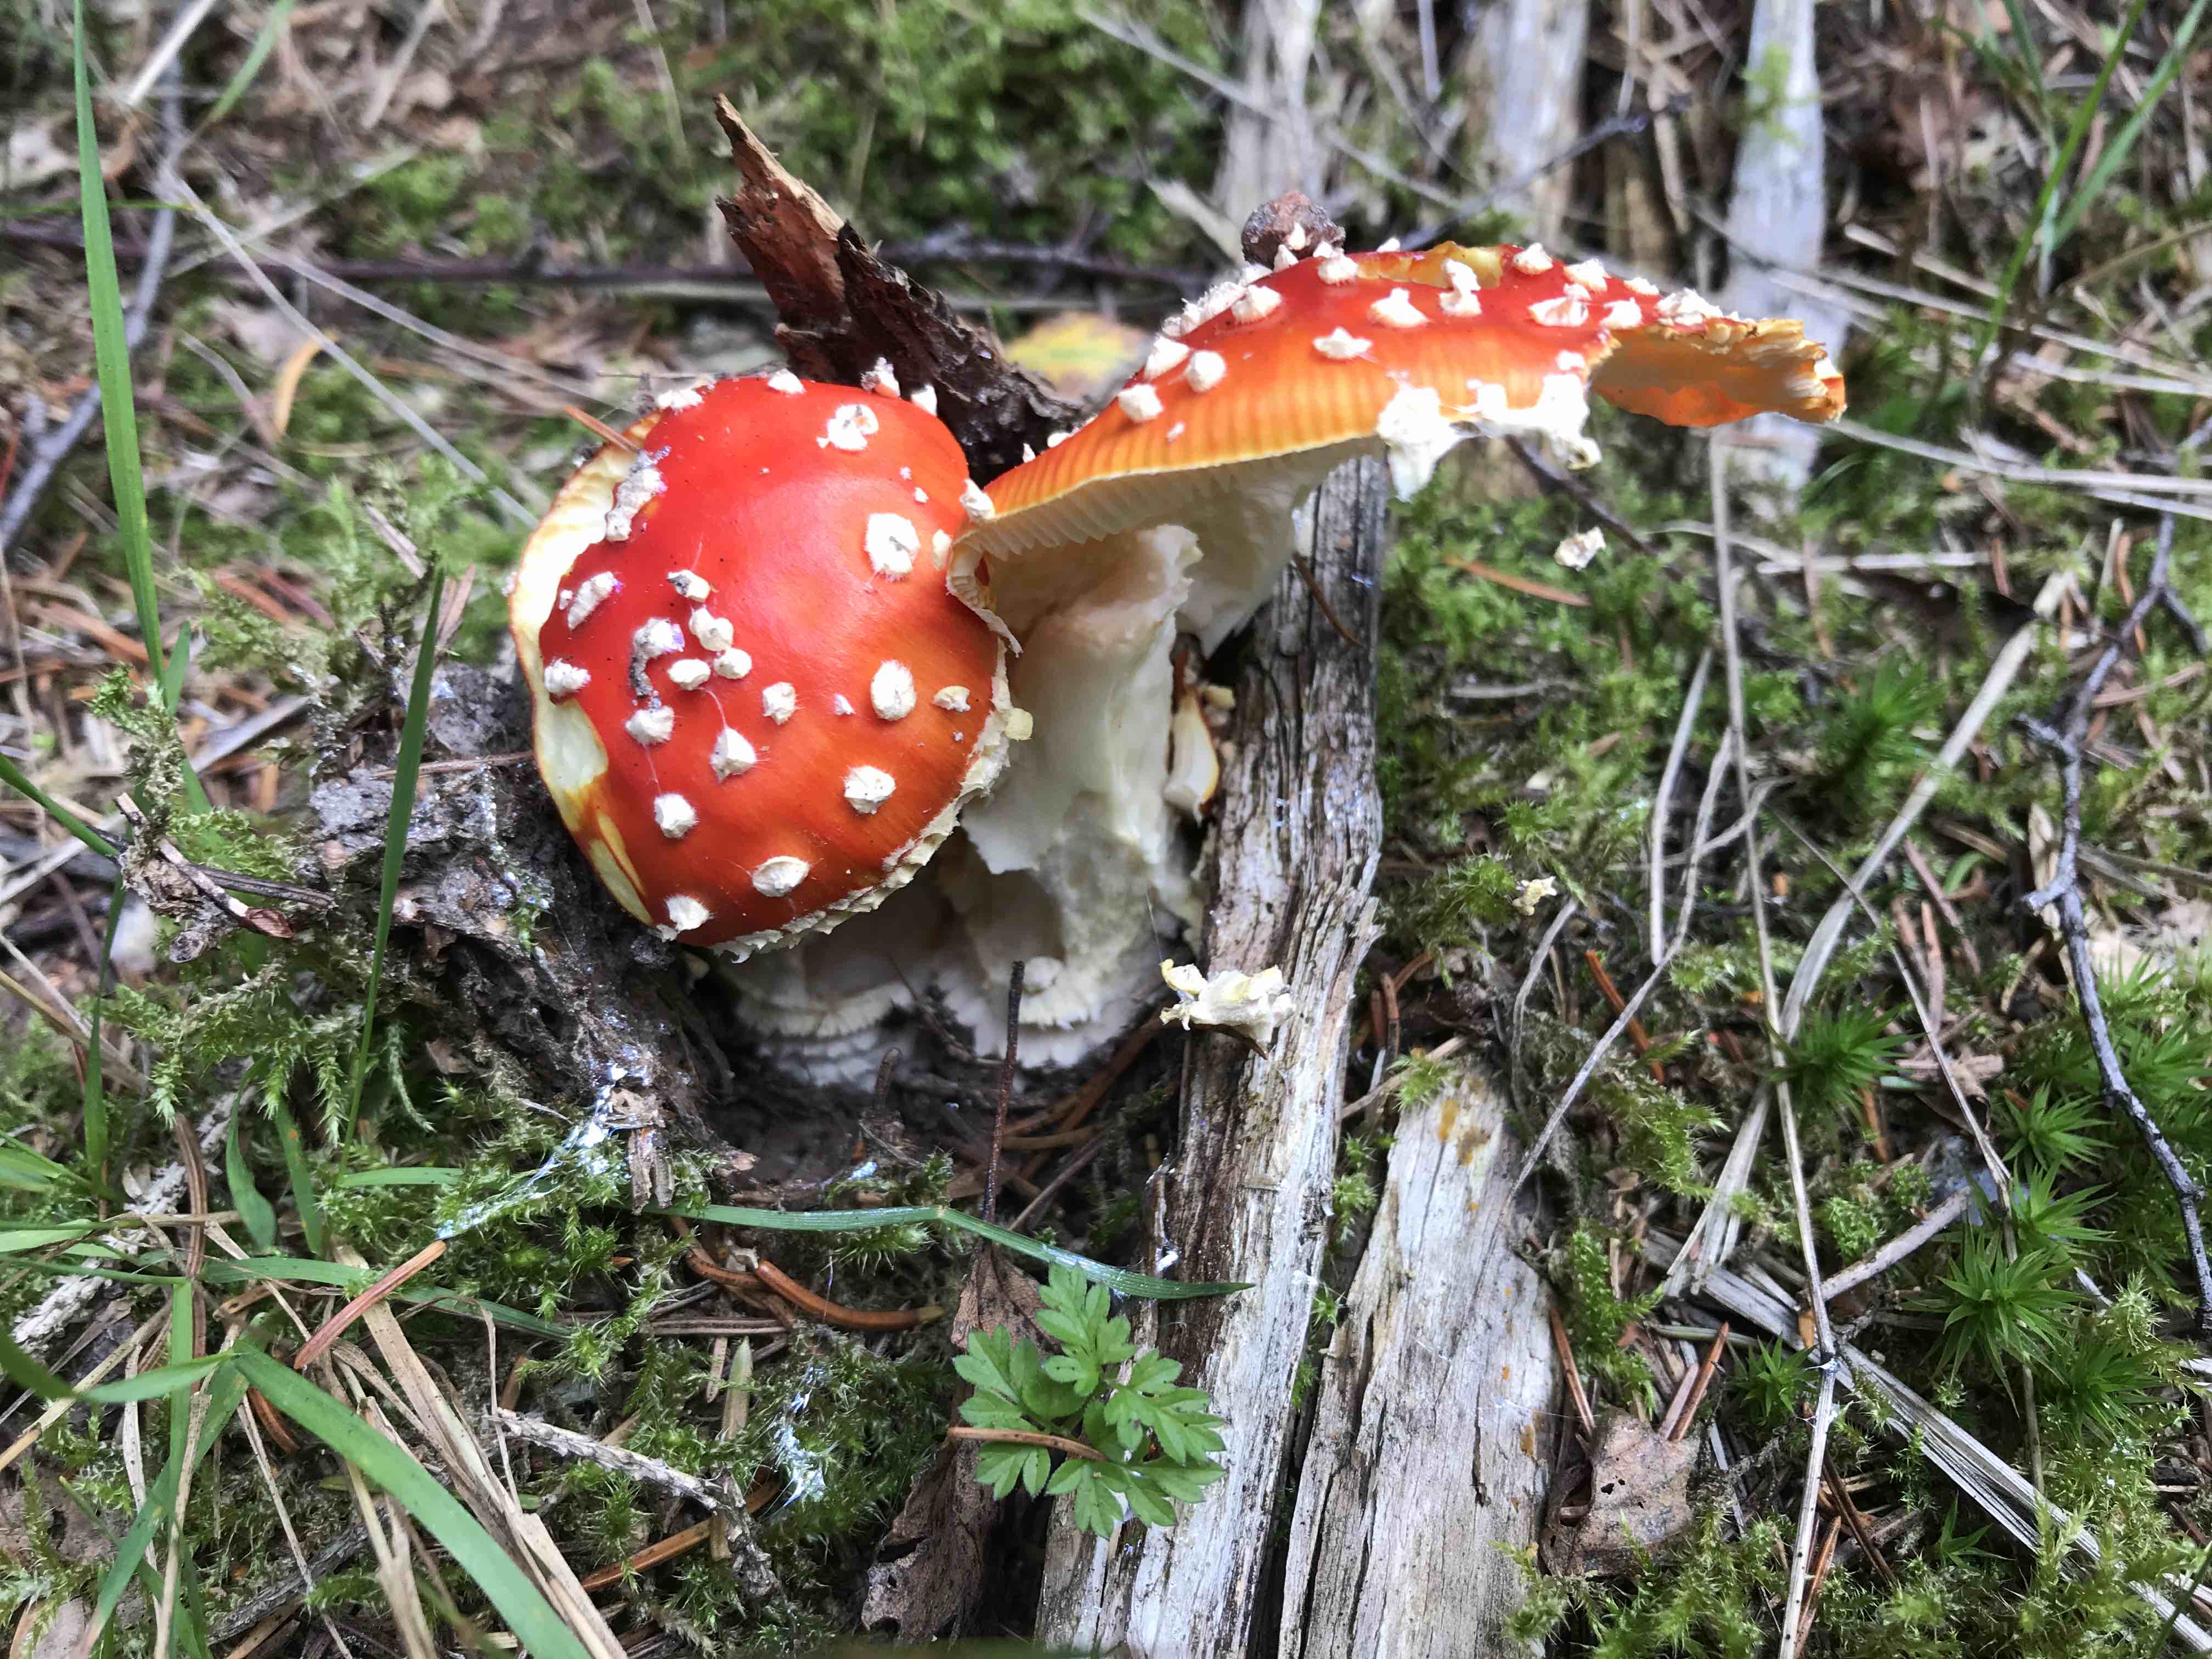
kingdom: Fungi
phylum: Basidiomycota
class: Agaricomycetes
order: Agaricales
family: Amanitaceae
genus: Amanita
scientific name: Amanita muscaria
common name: rød fluesvamp
